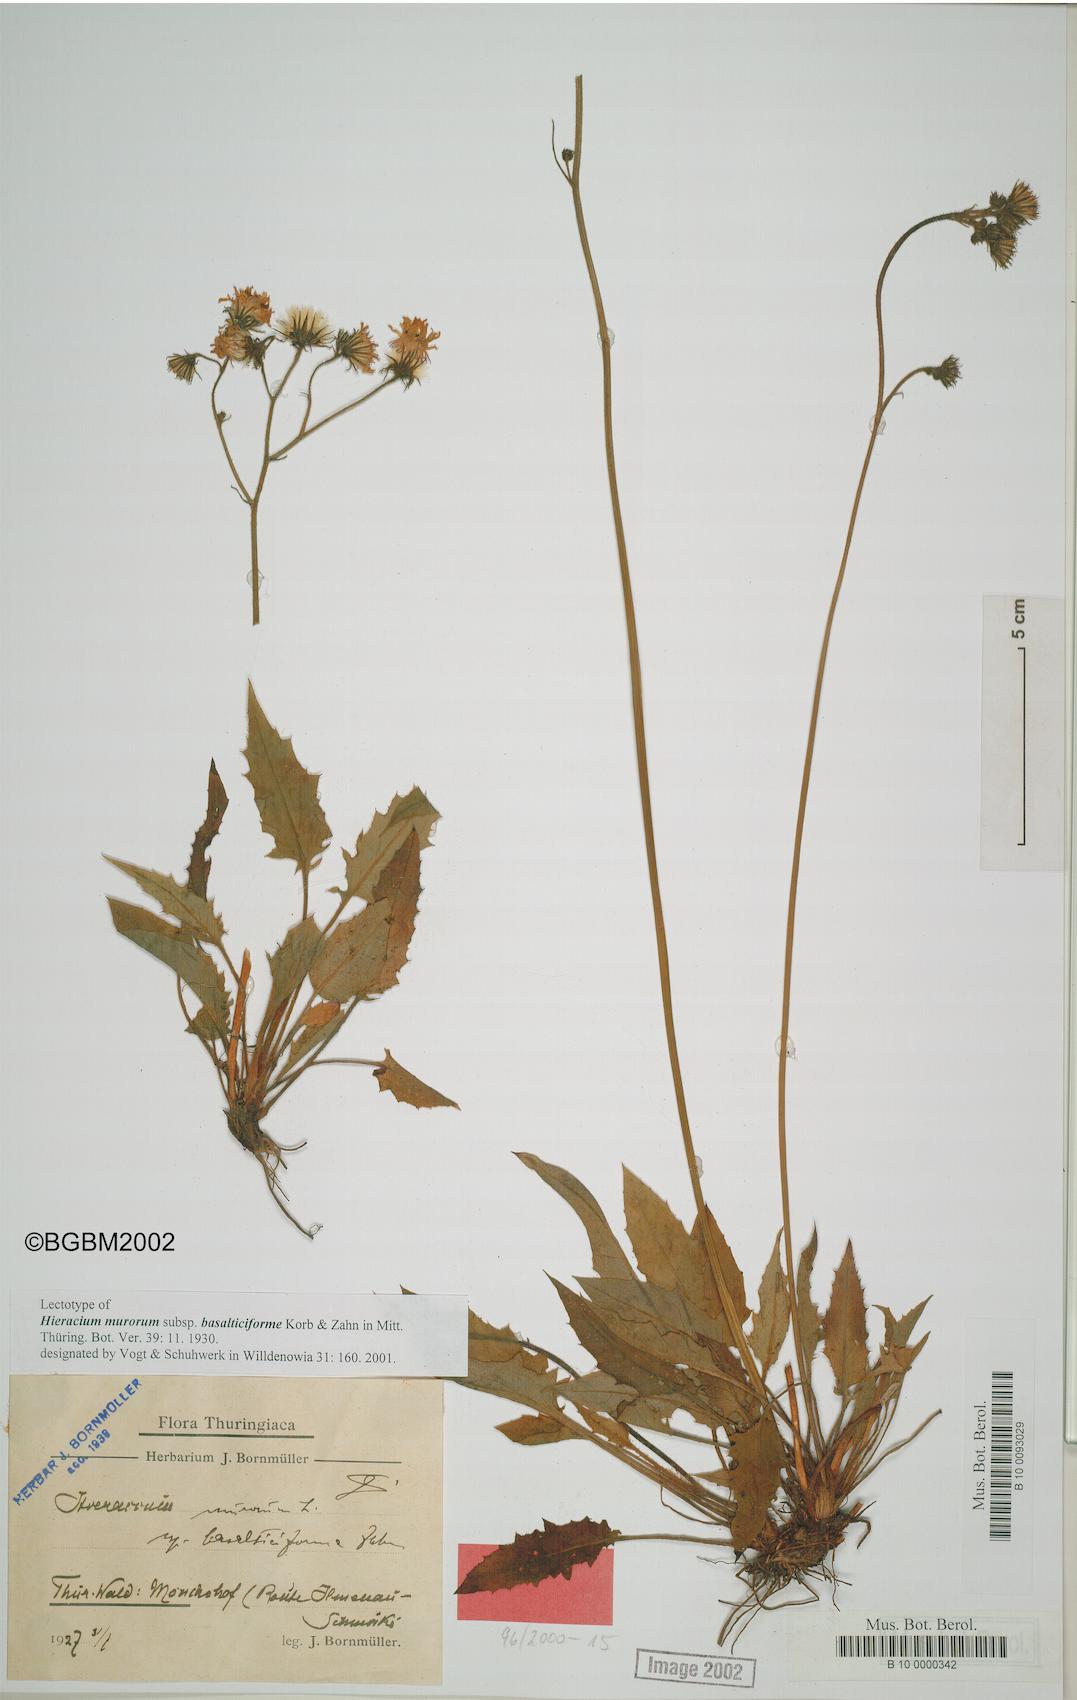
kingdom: Plantae
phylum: Tracheophyta
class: Magnoliopsida
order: Asterales
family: Asteraceae
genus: Hieracium
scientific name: Hieracium murorum
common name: Wall hawkweed
